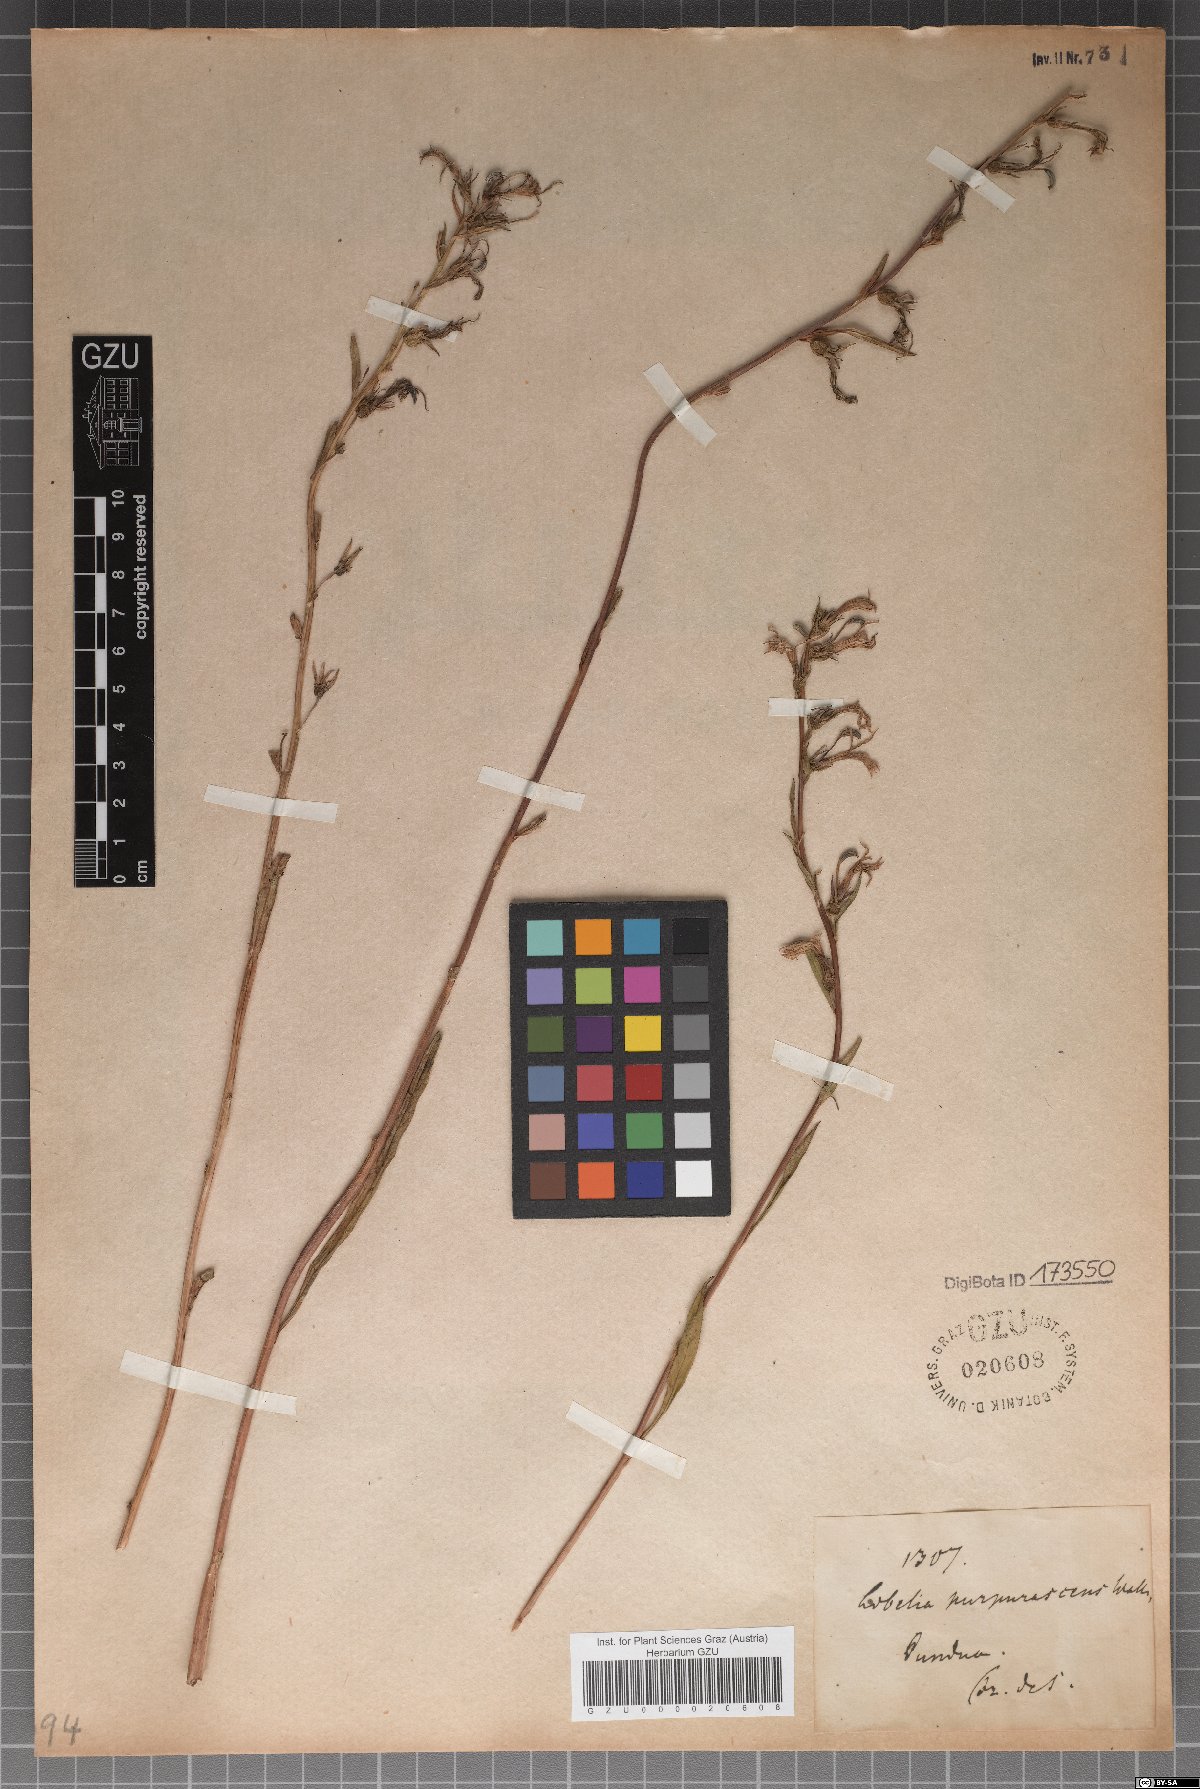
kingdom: Plantae
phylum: Tracheophyta
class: Magnoliopsida
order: Asterales
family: Campanulaceae
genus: Lobelia
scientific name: Lobelia nicotianifolia
